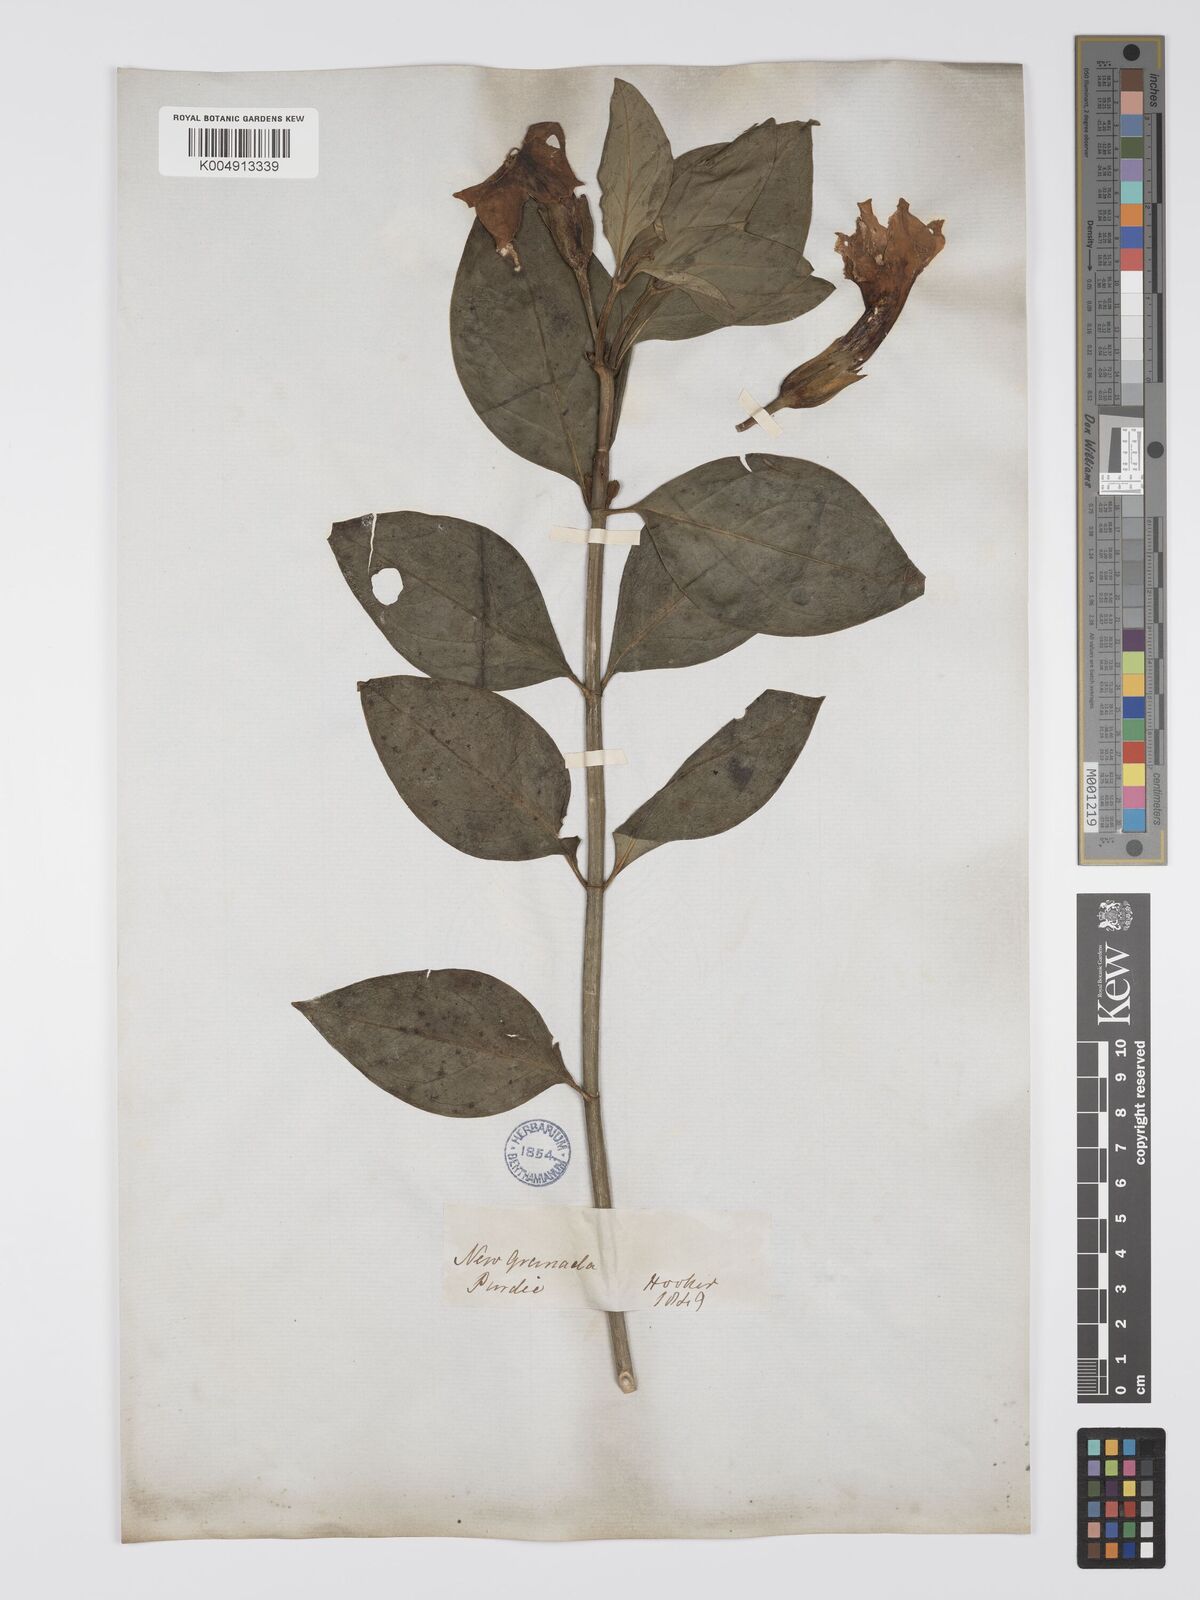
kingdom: Plantae
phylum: Tracheophyta
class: Magnoliopsida
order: Gentianales
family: Gentianaceae
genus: Symbolanthus
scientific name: Symbolanthus mathewsii
